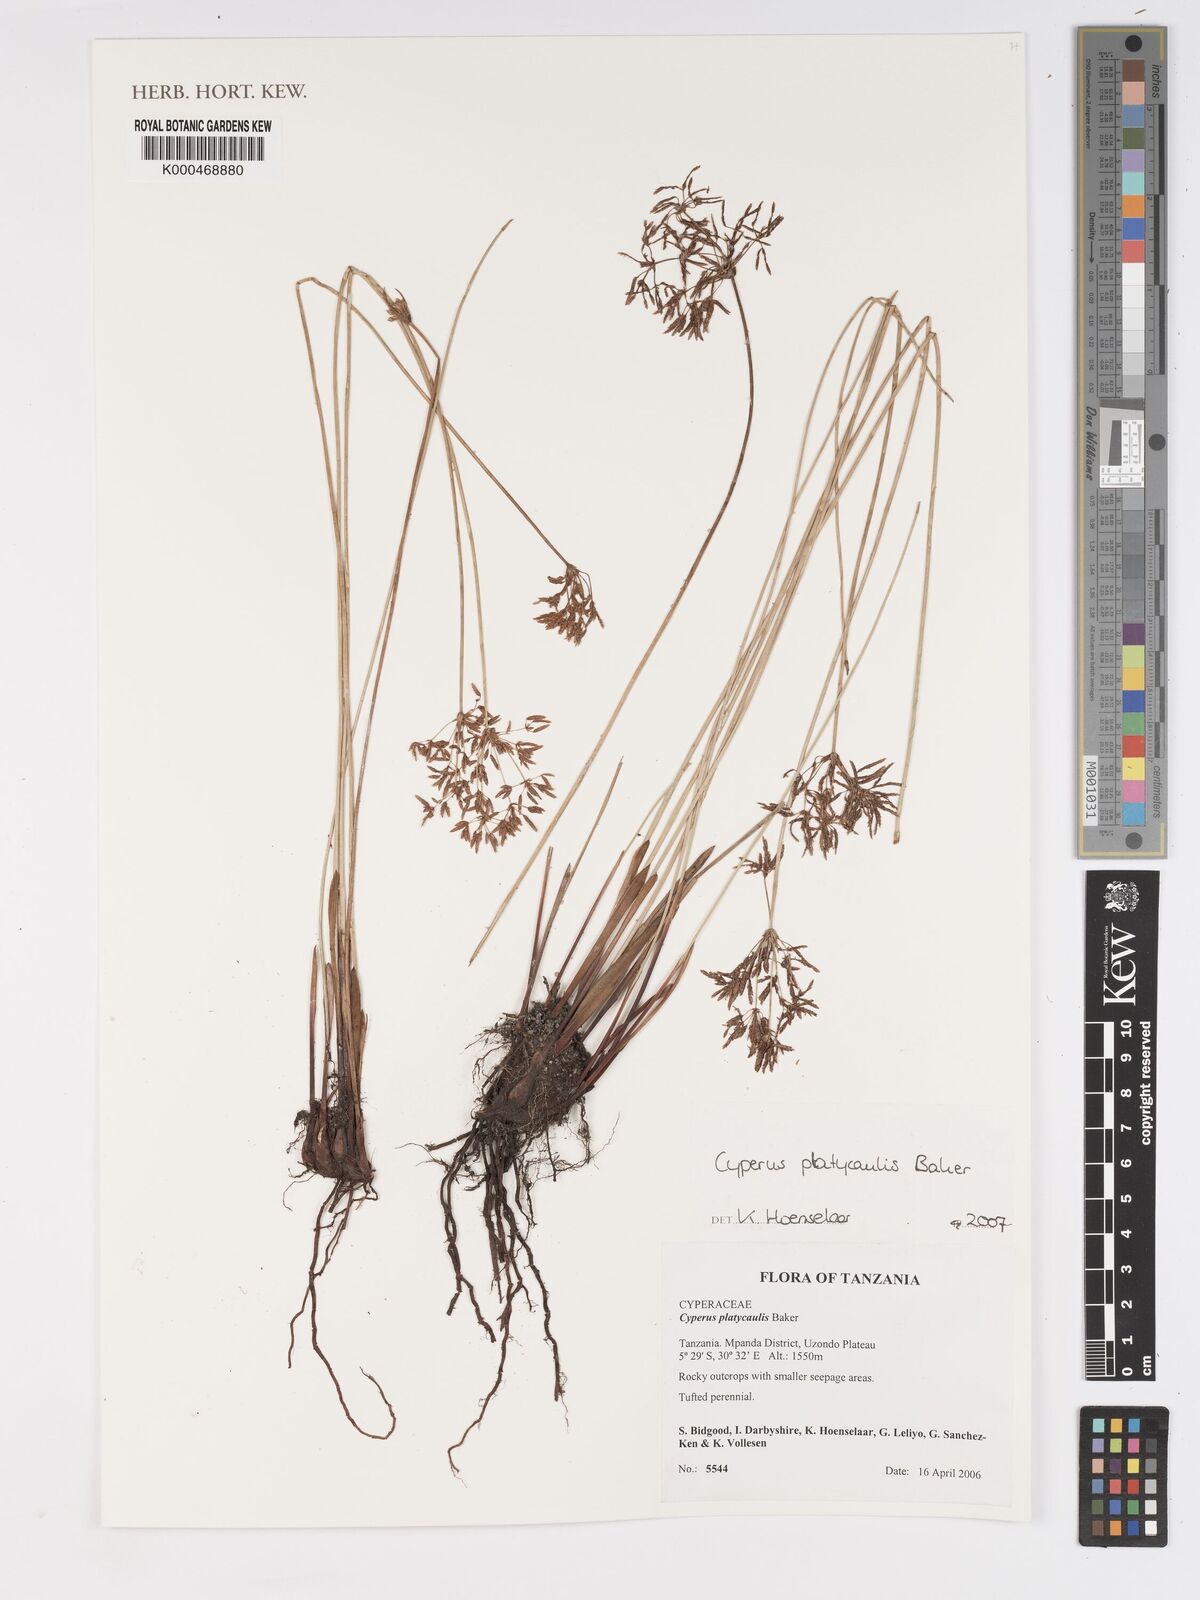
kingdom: Plantae
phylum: Tracheophyta
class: Liliopsida
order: Poales
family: Cyperaceae
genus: Cyperus
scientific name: Cyperus platycaulis
